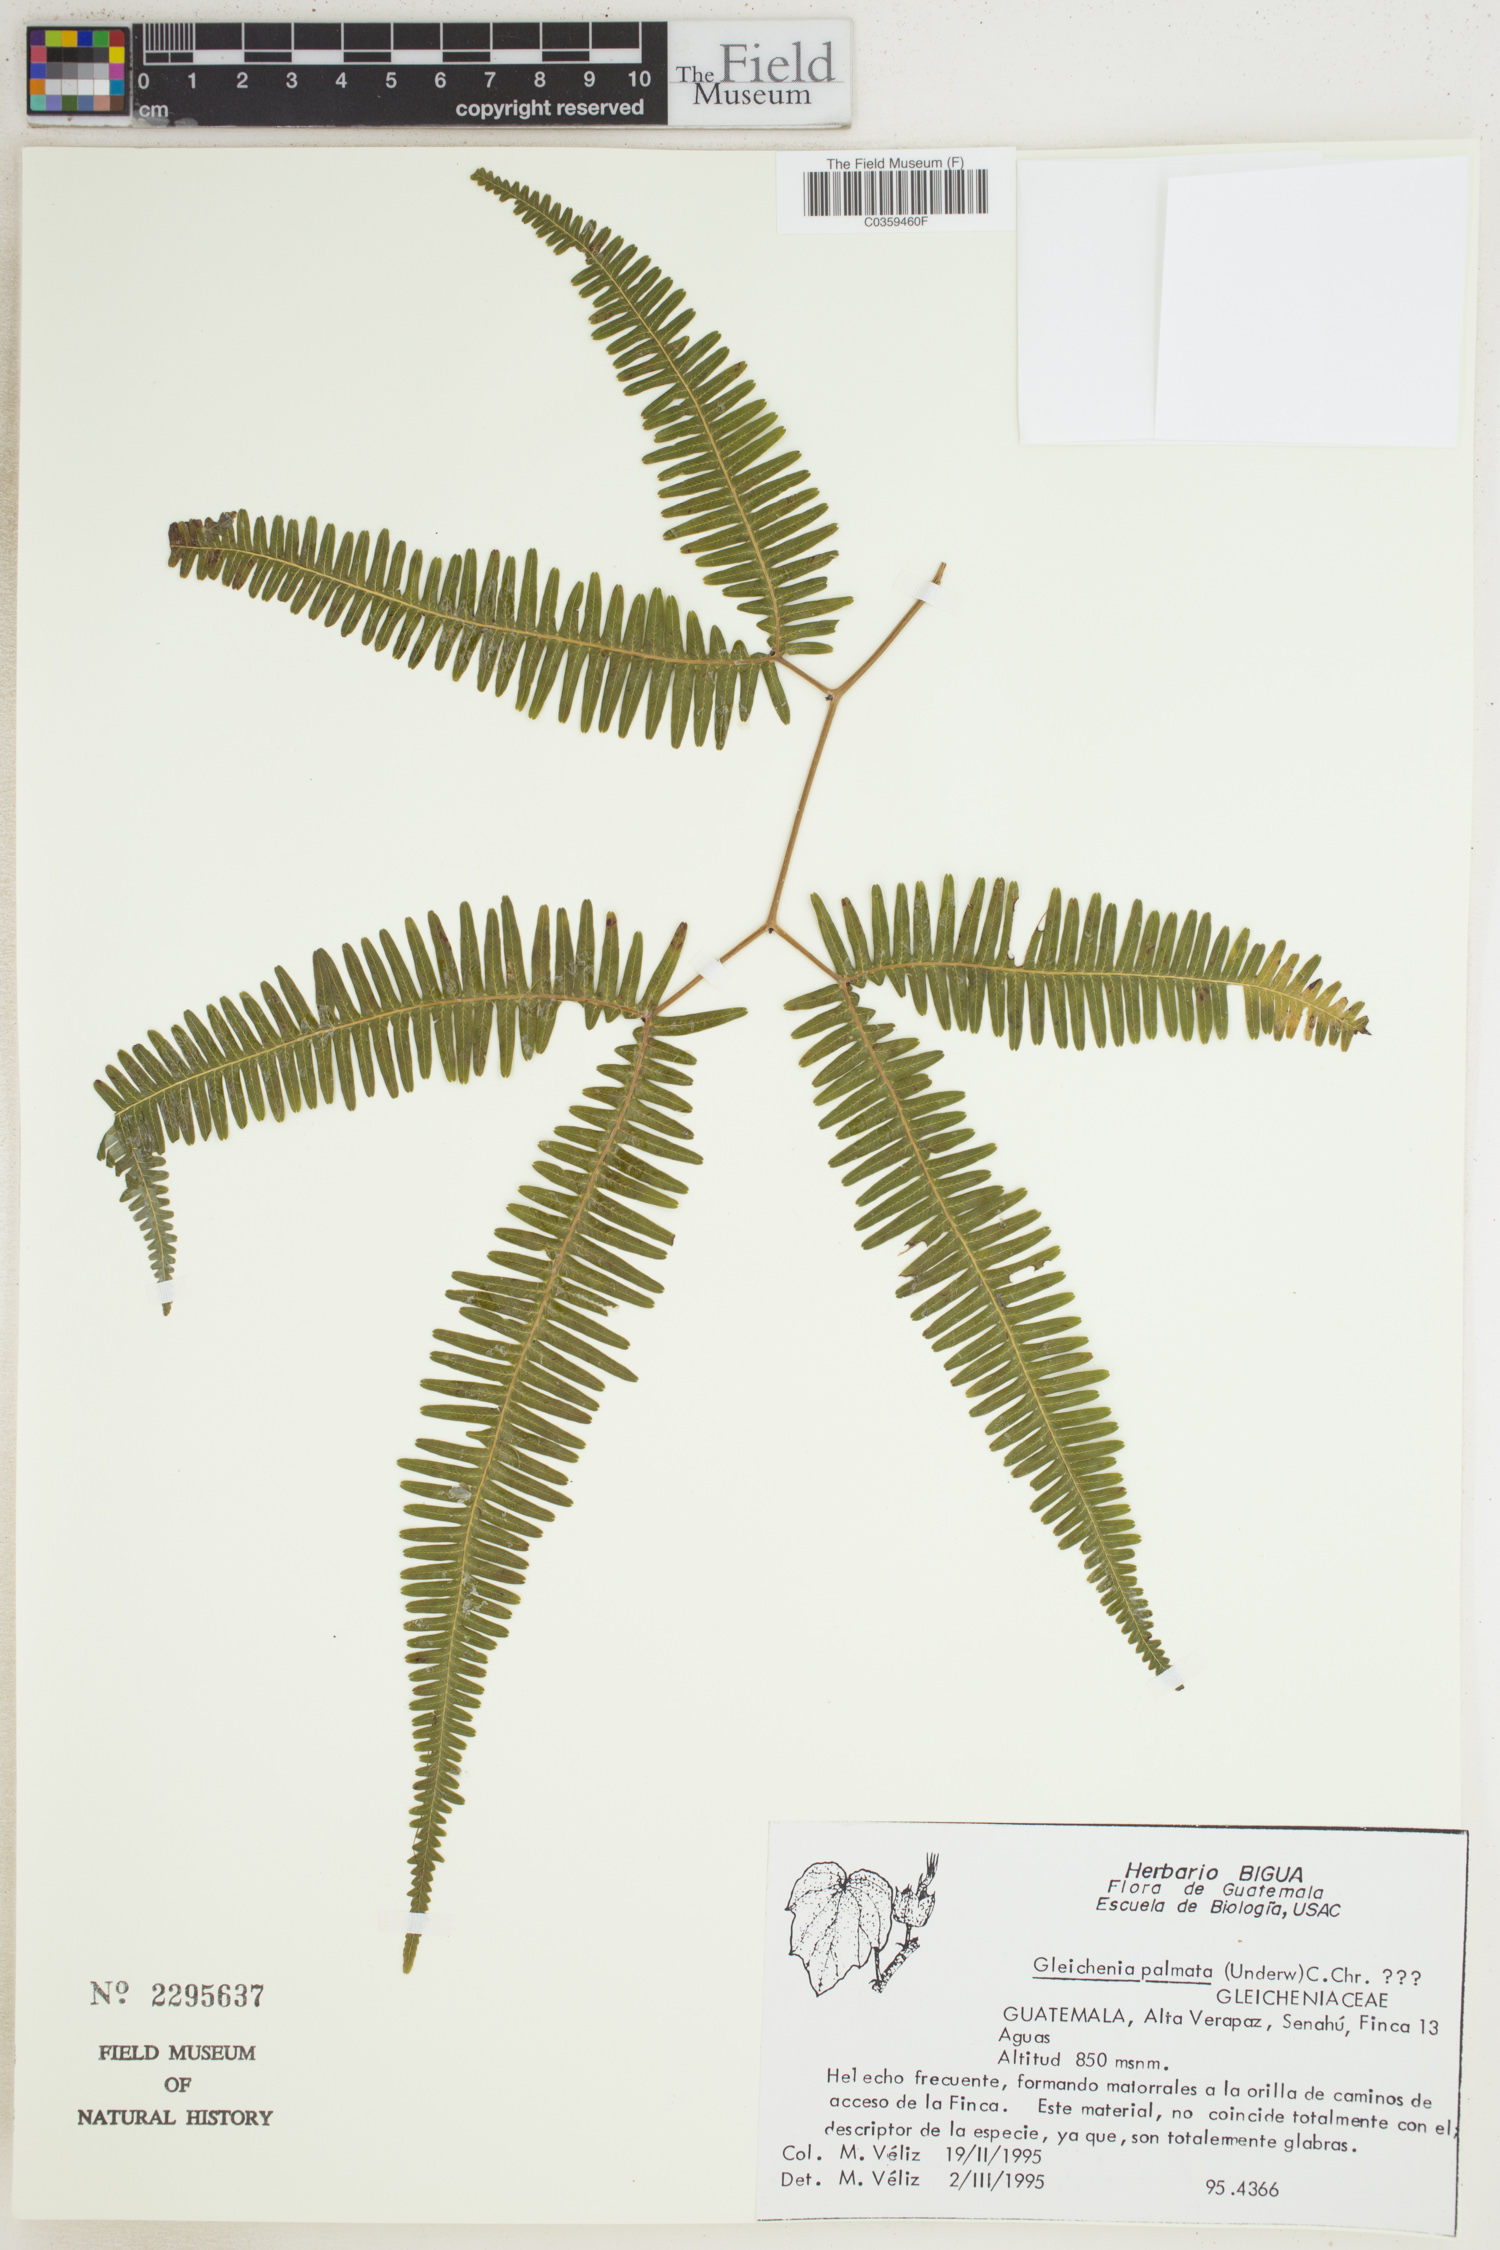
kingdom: Plantae
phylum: Tracheophyta
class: Polypodiopsida
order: Gleicheniales
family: Gleicheniaceae
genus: Sticherus
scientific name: Sticherus furcatus
